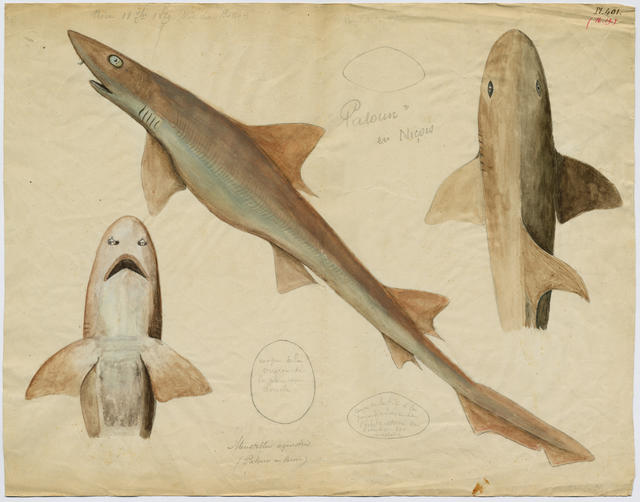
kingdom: Animalia
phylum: Chordata
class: Elasmobranchii
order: Carcharhiniformes
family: Triakidae
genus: Mustelus
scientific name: Mustelus mustelus
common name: Smooth-hound
